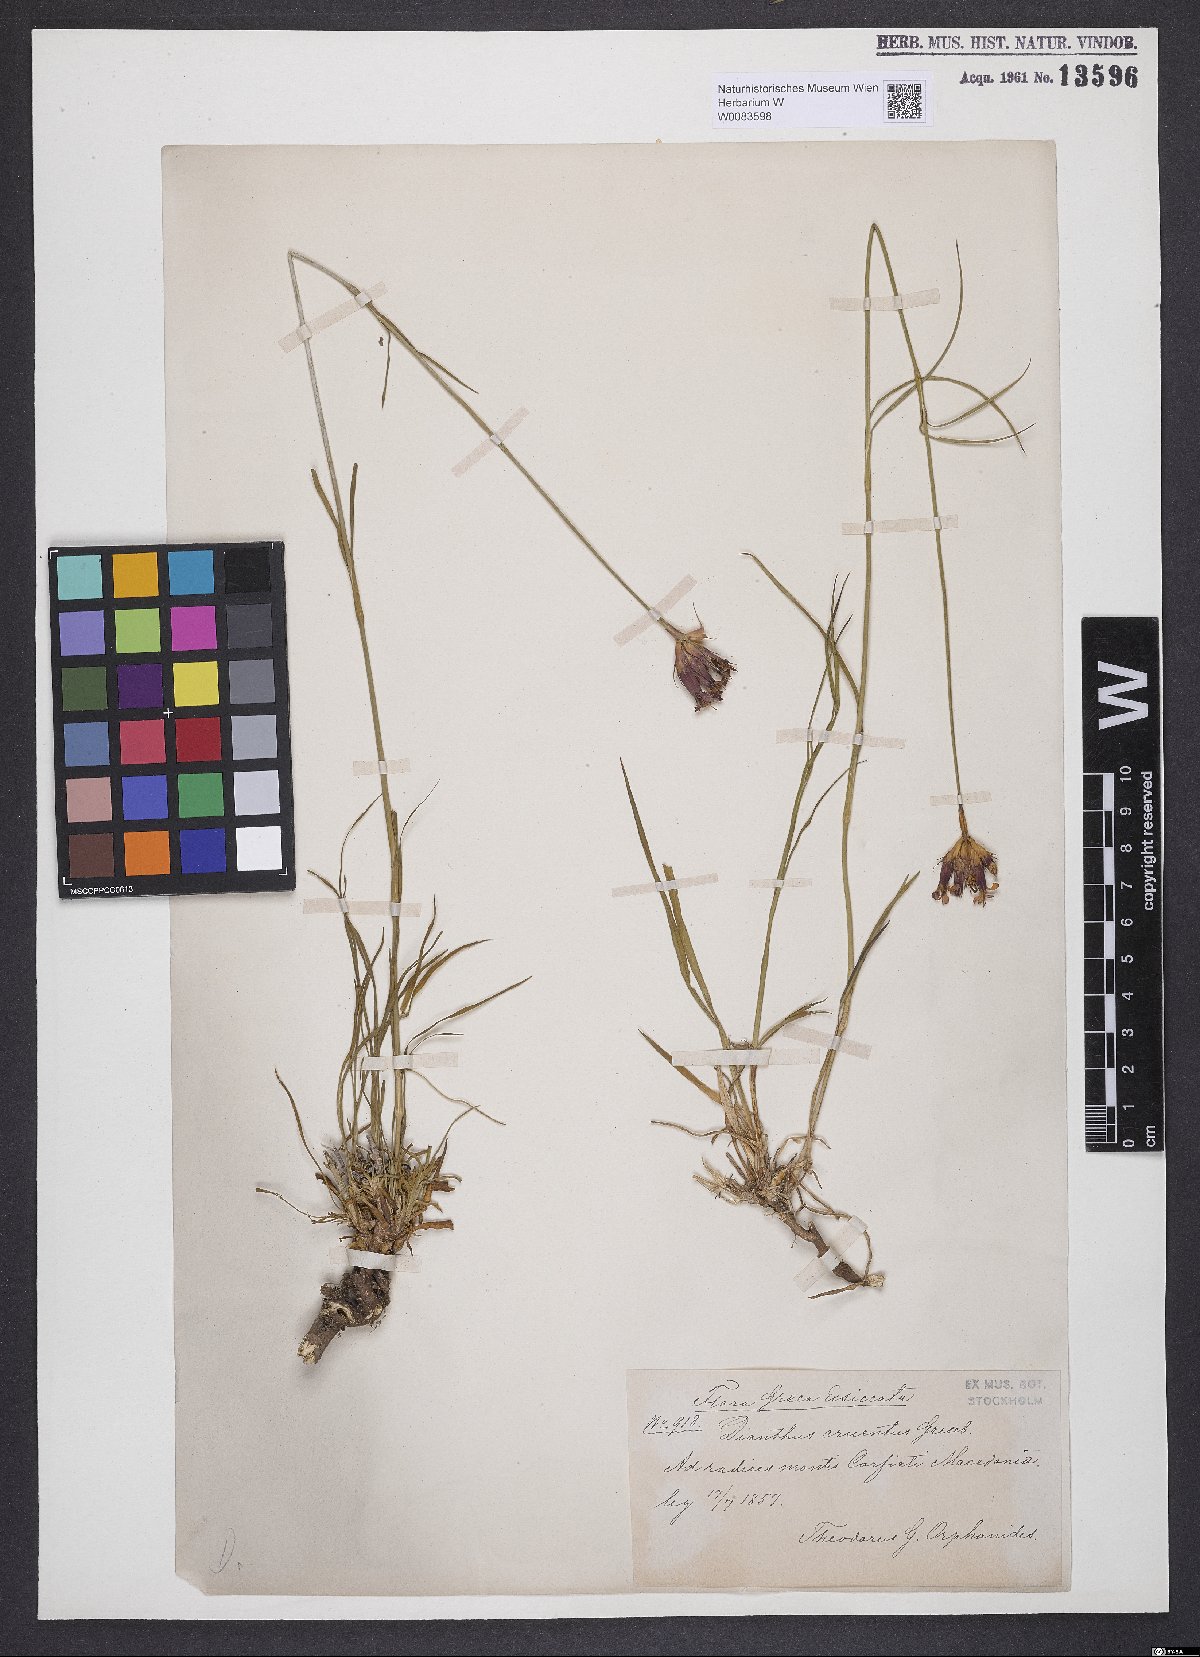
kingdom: Plantae
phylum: Tracheophyta
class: Magnoliopsida
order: Caryophyllales
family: Caryophyllaceae
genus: Dianthus
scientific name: Dianthus cruentus
